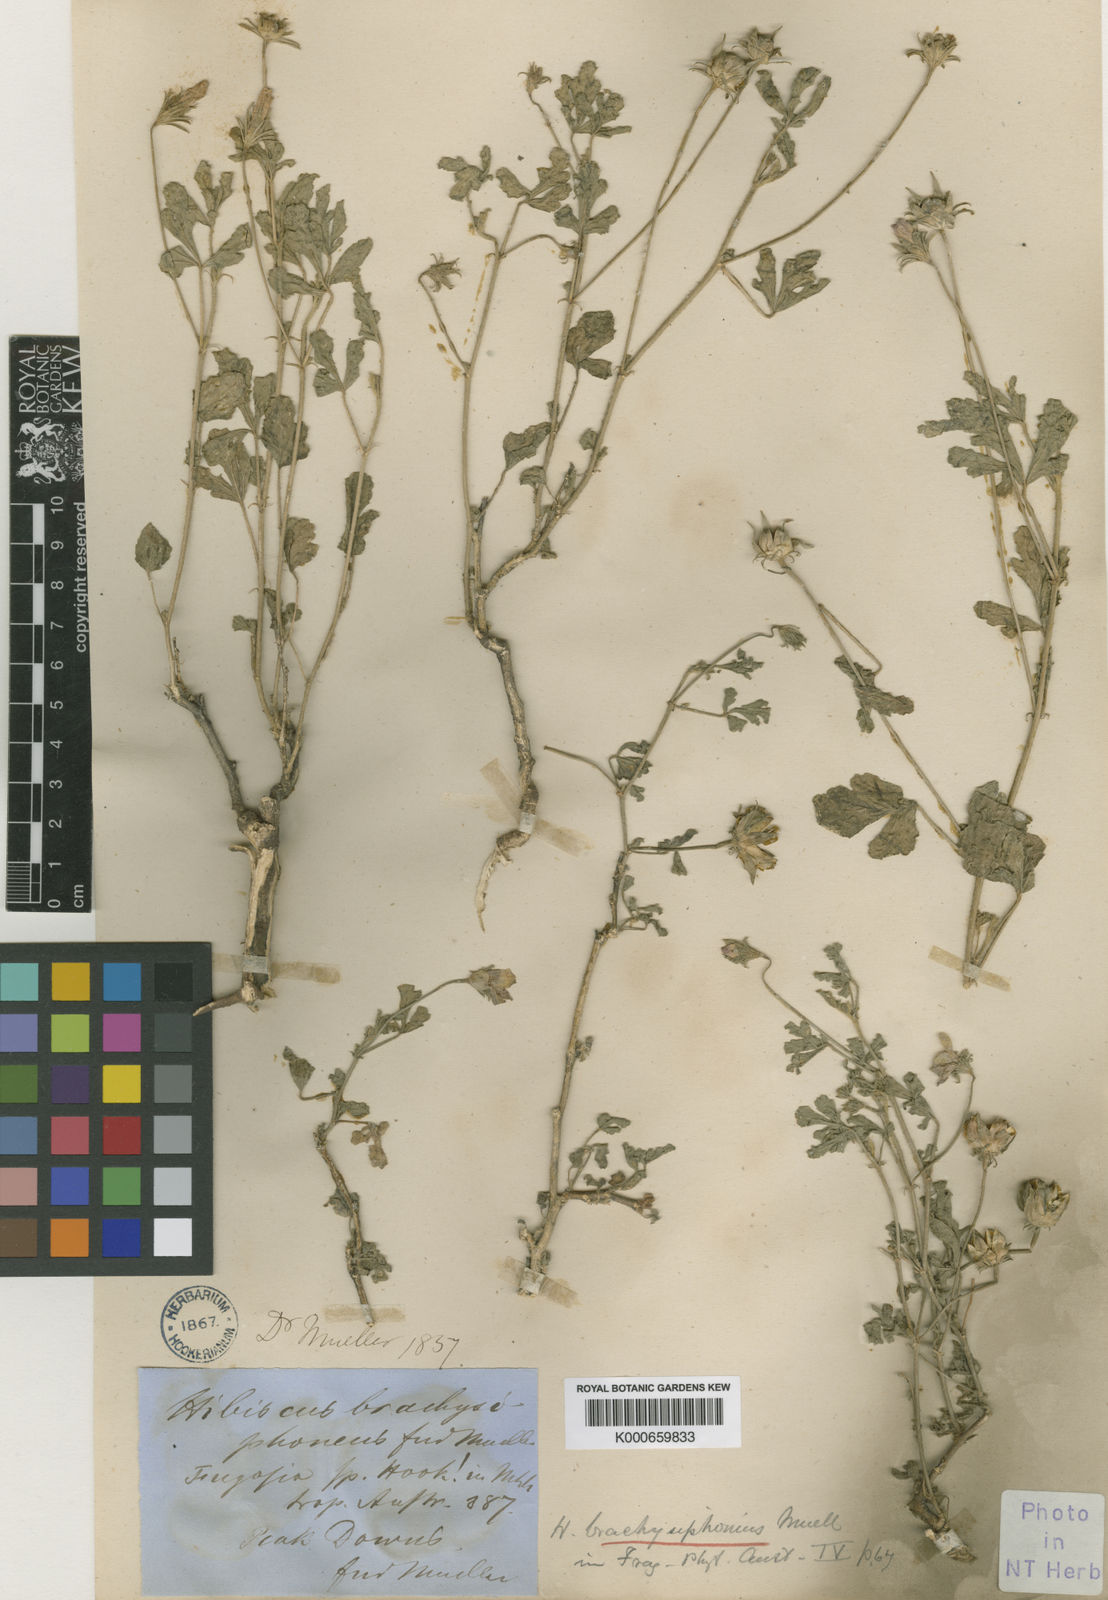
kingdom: Plantae
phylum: Tracheophyta
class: Magnoliopsida
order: Malvales
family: Malvaceae
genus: Hibiscus
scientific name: Hibiscus brachysiphonius
